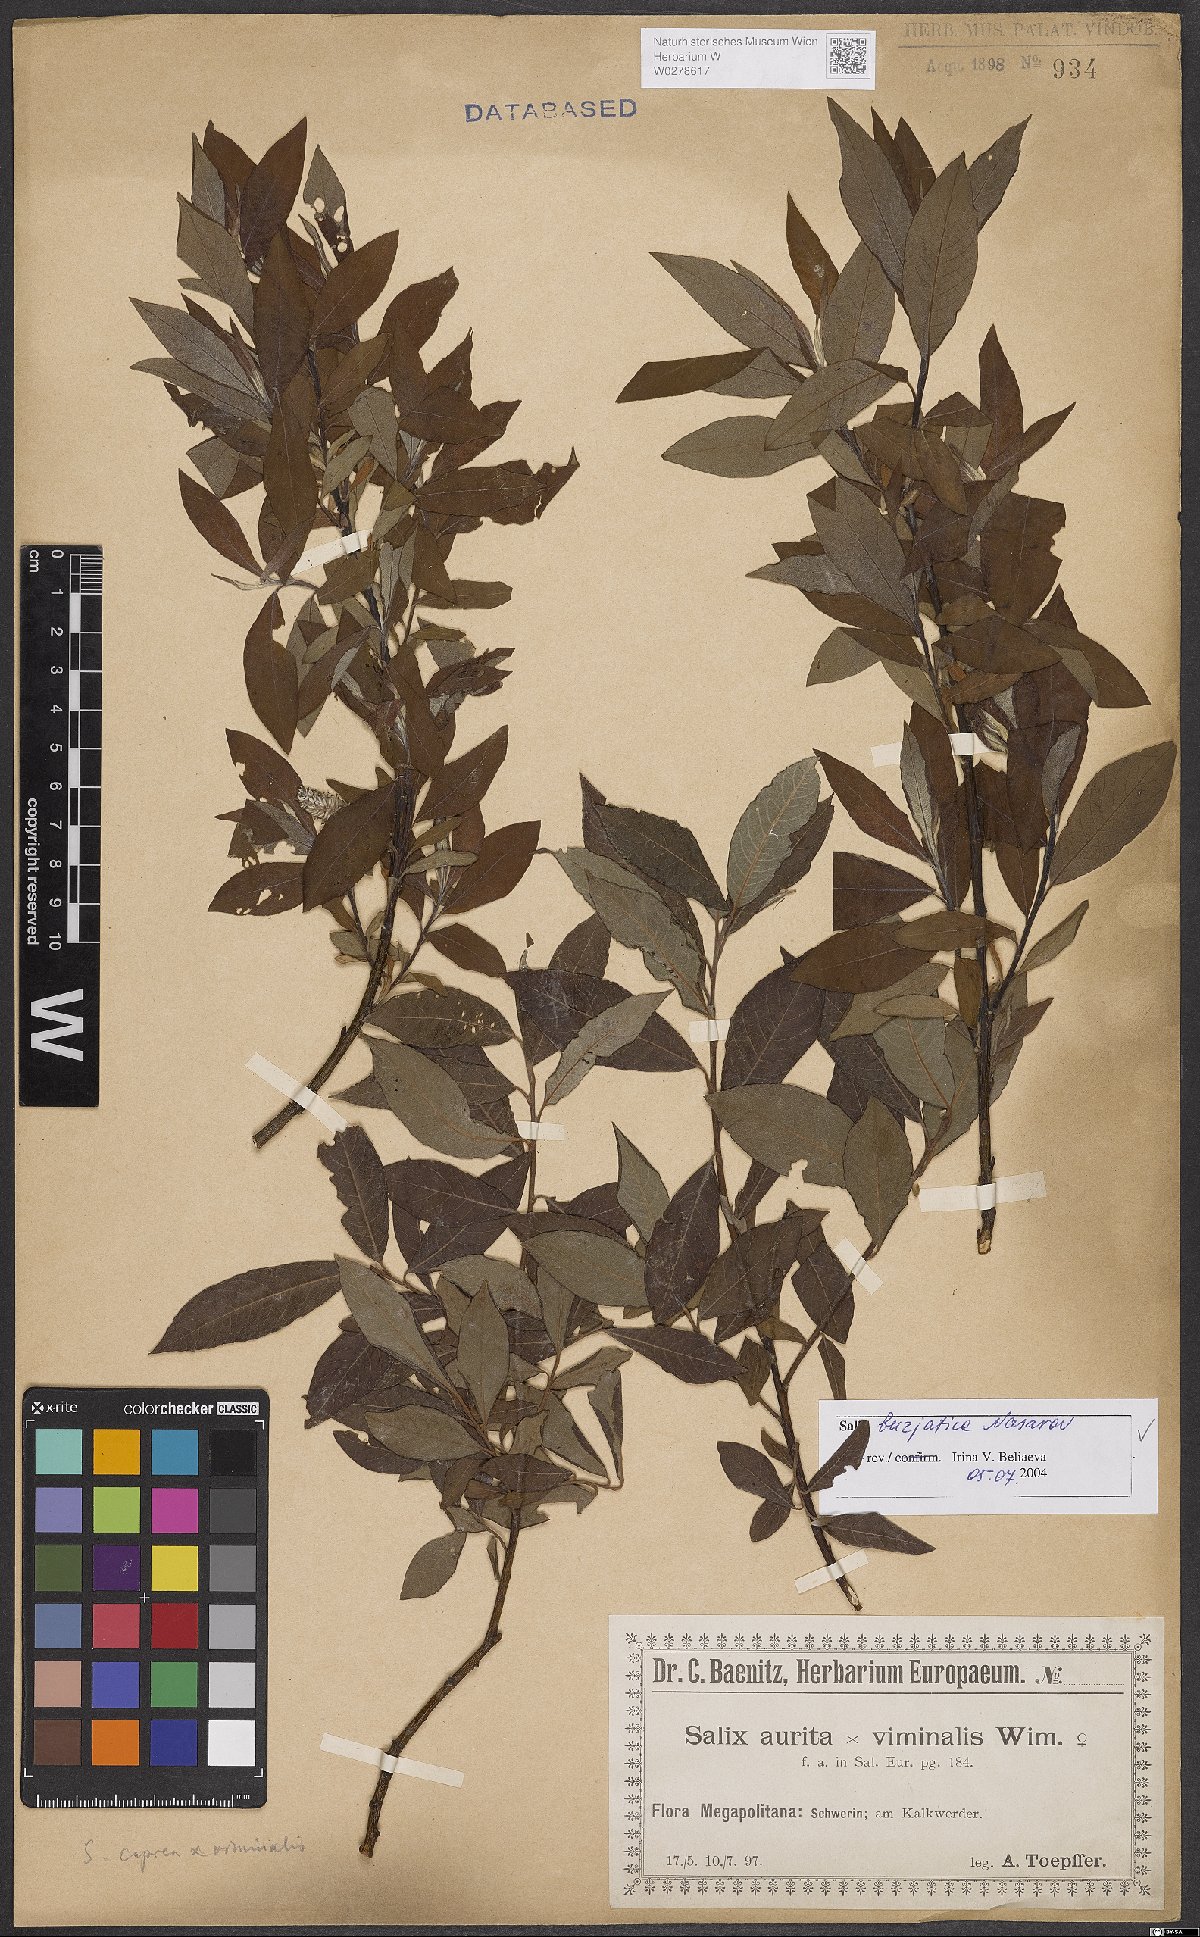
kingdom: Plantae
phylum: Tracheophyta
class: Magnoliopsida
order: Malpighiales
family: Salicaceae
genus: Salix
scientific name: Salix gmelinii
